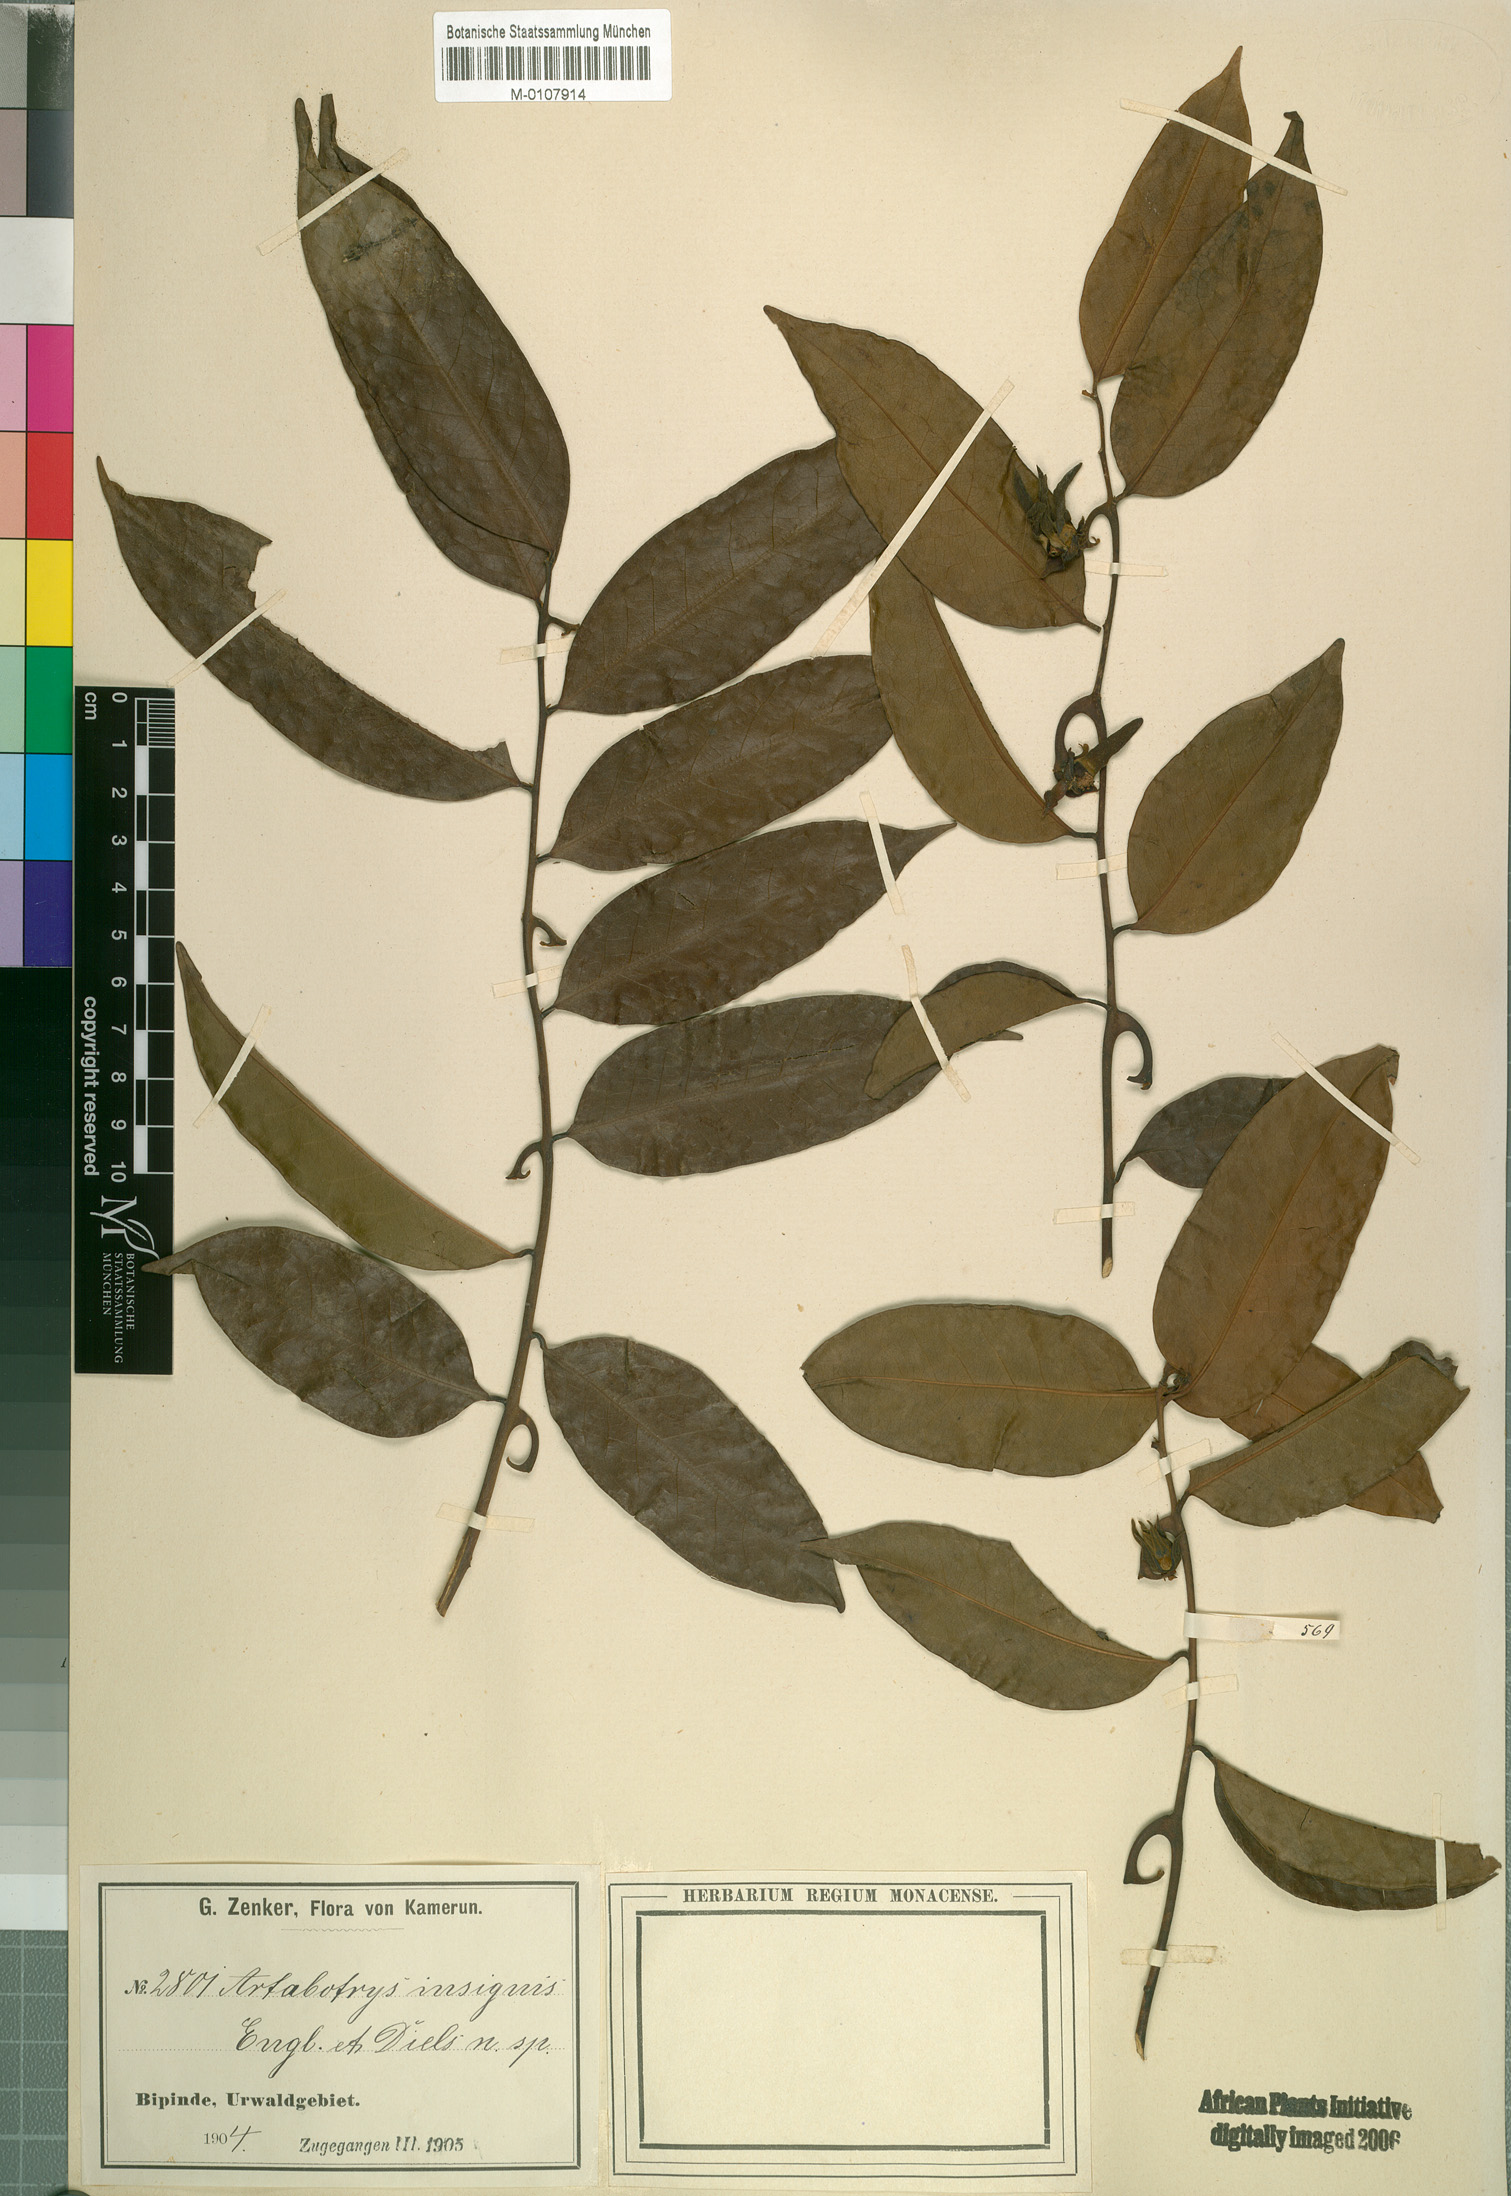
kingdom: Plantae
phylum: Tracheophyta
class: Magnoliopsida
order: Magnoliales
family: Annonaceae
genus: Artabotrys
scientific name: Artabotrys insignis
